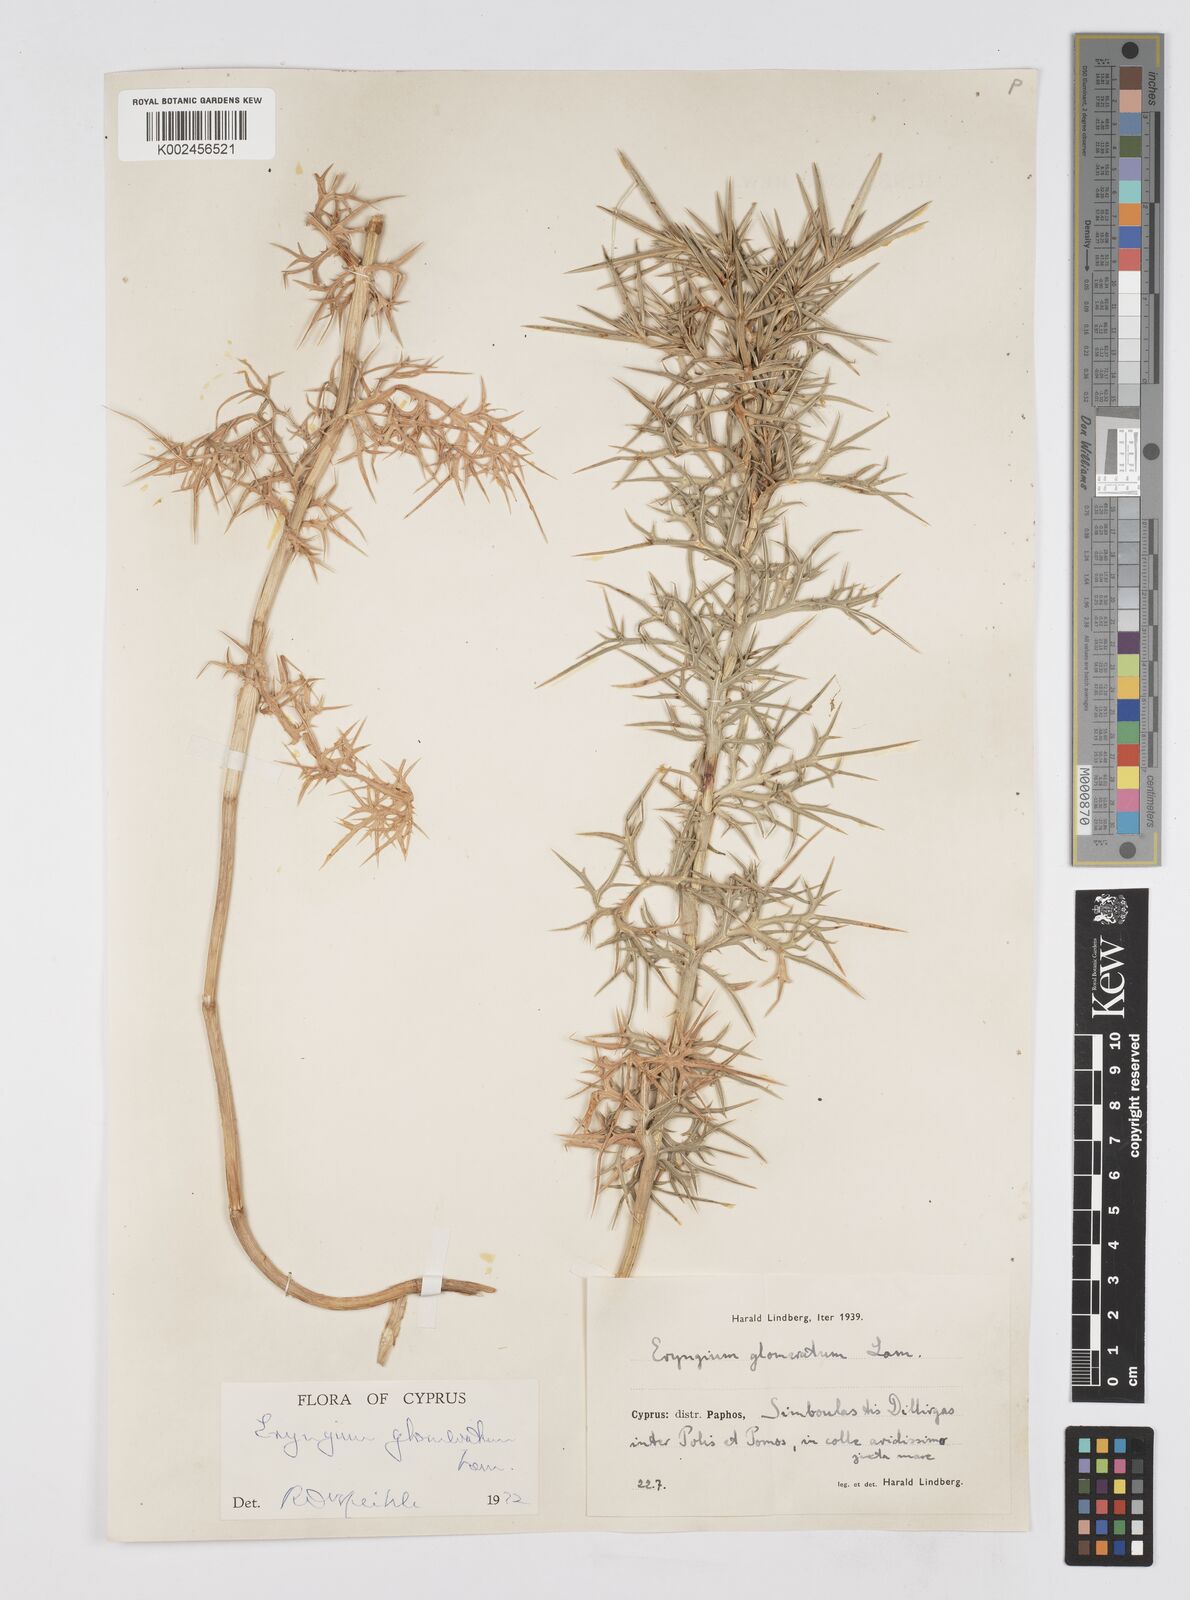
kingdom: Plantae
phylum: Tracheophyta
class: Magnoliopsida
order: Apiales
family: Apiaceae
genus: Eryngium
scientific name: Eryngium glomeratum
